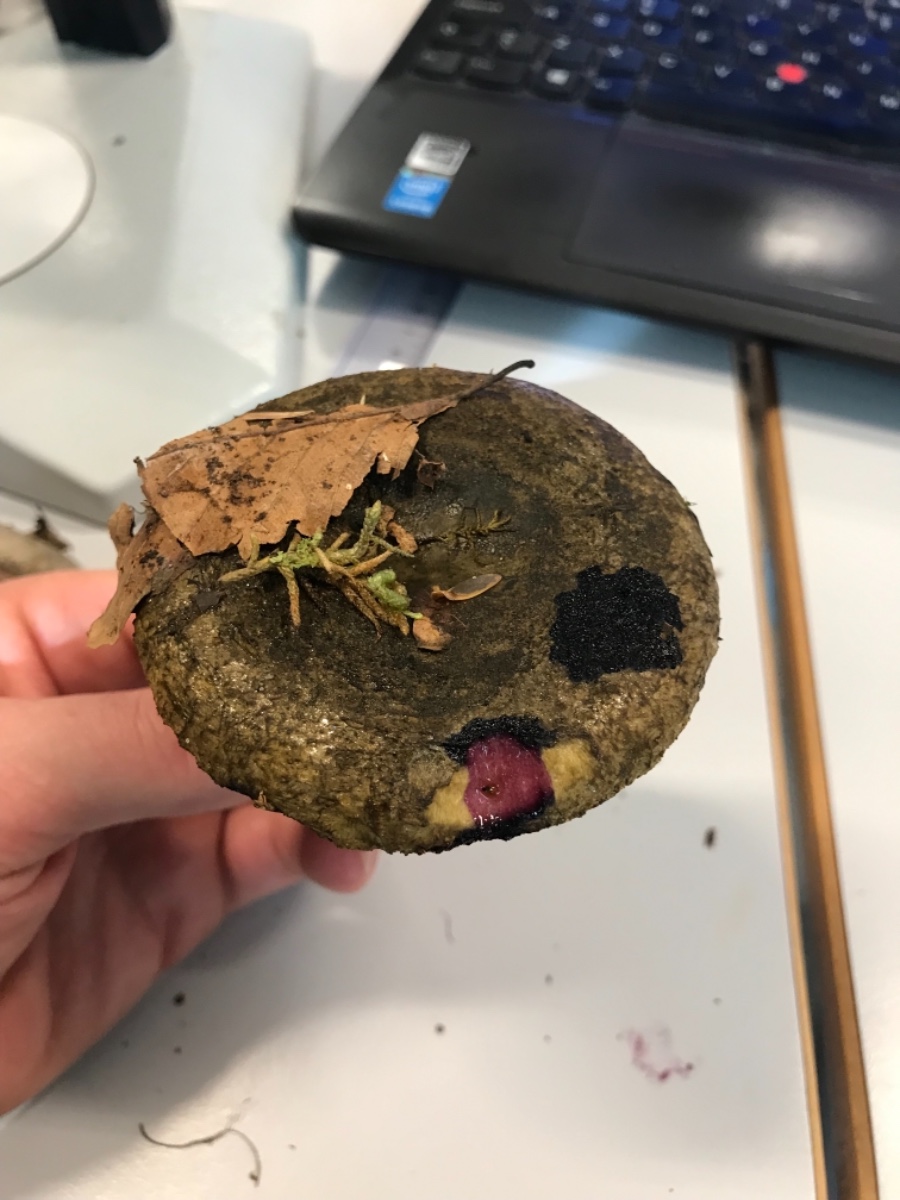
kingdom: Fungi
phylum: Basidiomycota
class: Agaricomycetes
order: Russulales
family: Russulaceae
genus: Lactarius
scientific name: Lactarius necator
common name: manddraber-mælkehat
